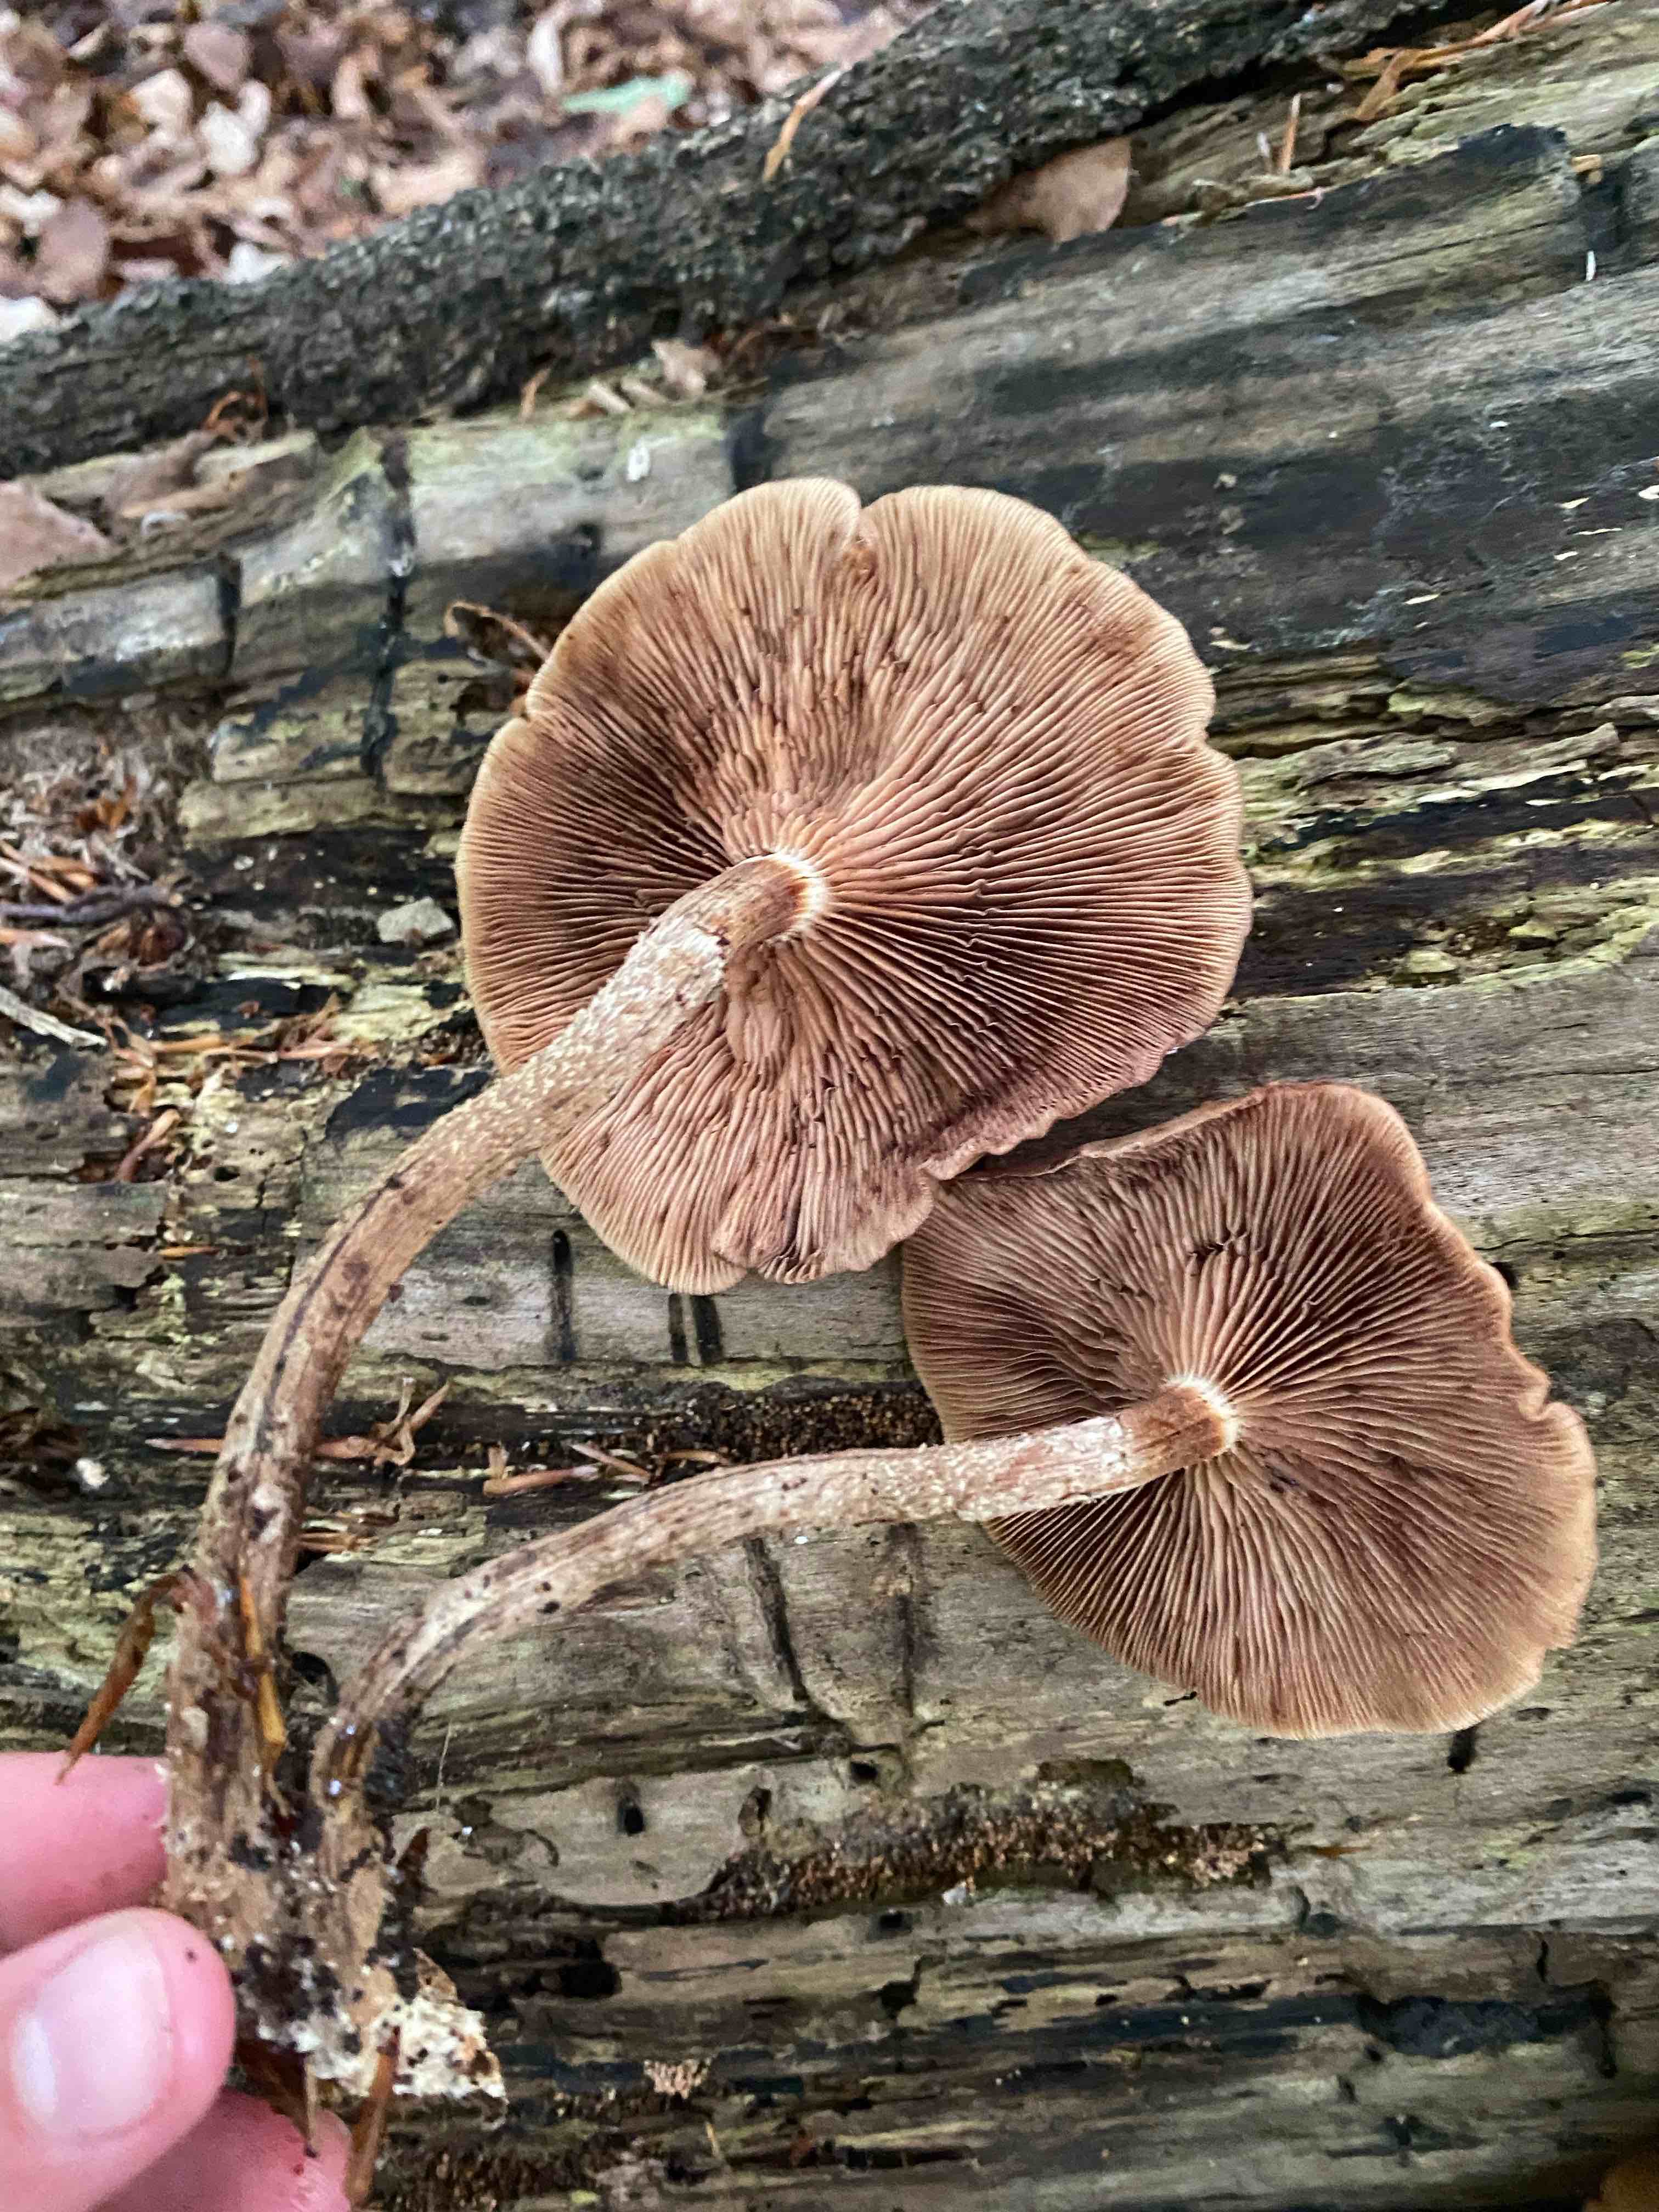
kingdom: Fungi
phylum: Basidiomycota
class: Agaricomycetes
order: Agaricales
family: Strophariaceae
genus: Kuehneromyces
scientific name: Kuehneromyces mutabilis
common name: foranderlig skælhat
